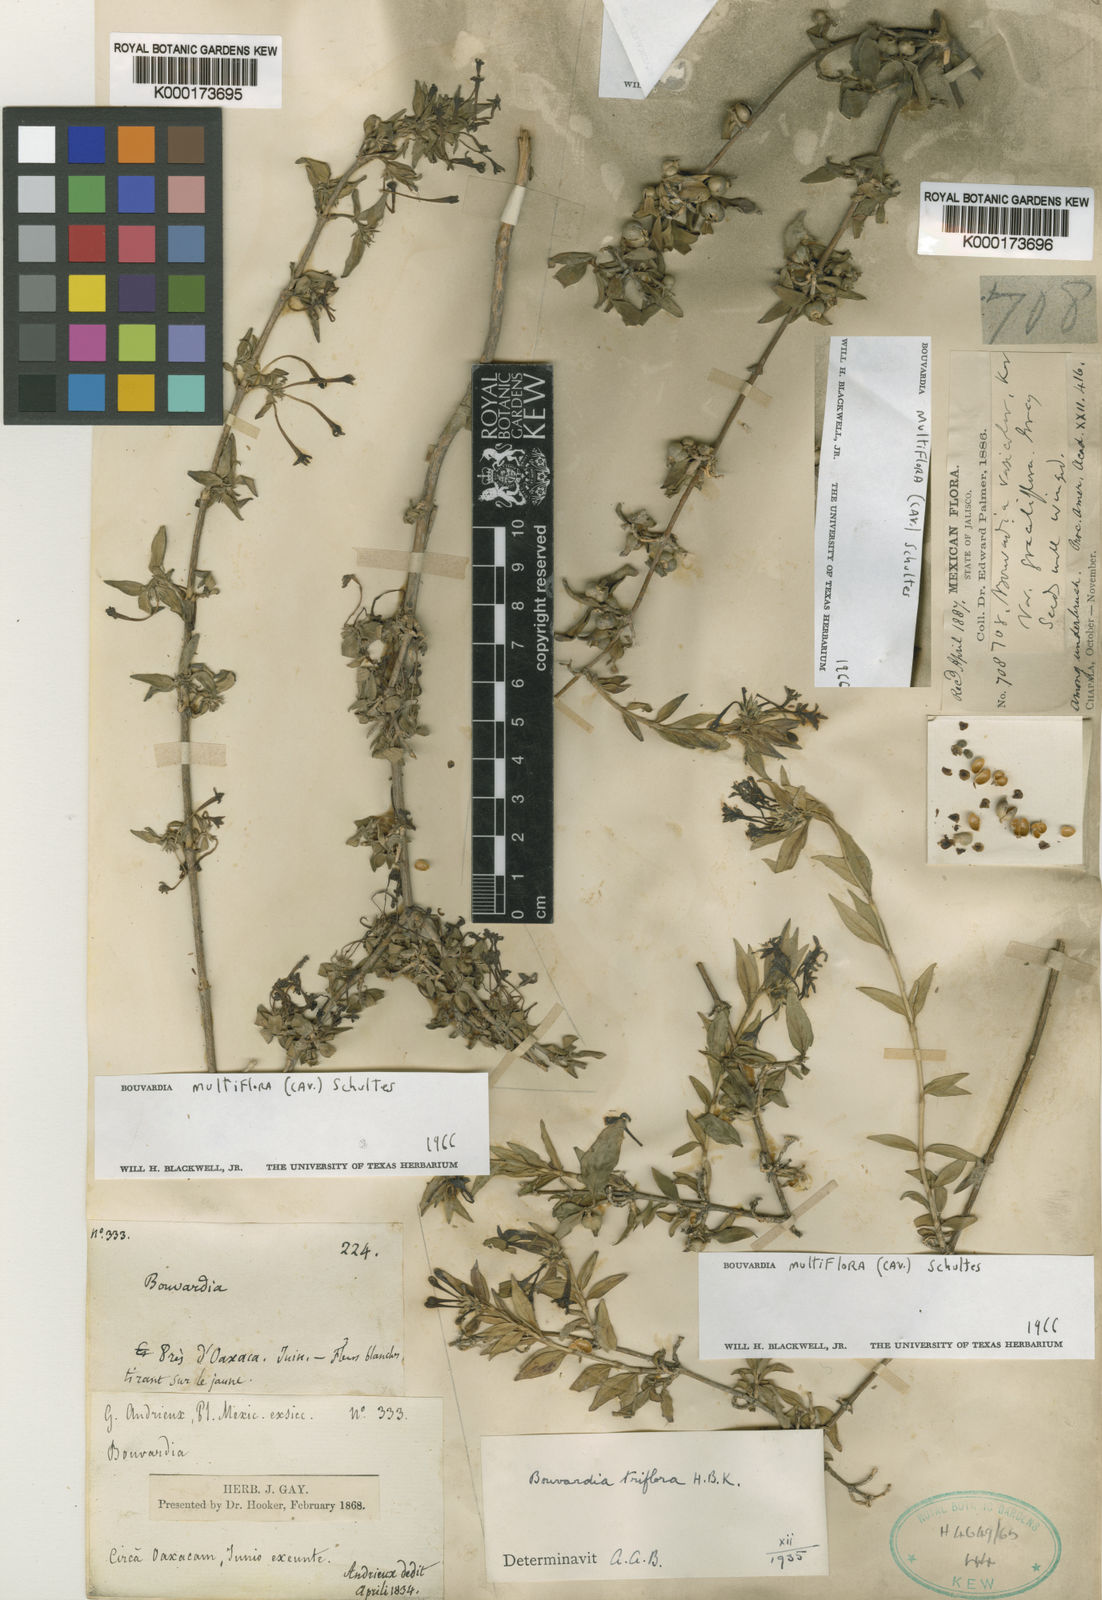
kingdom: Plantae
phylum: Tracheophyta
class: Magnoliopsida
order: Gentianales
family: Rubiaceae
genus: Bouvardia
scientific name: Bouvardia multiflora
